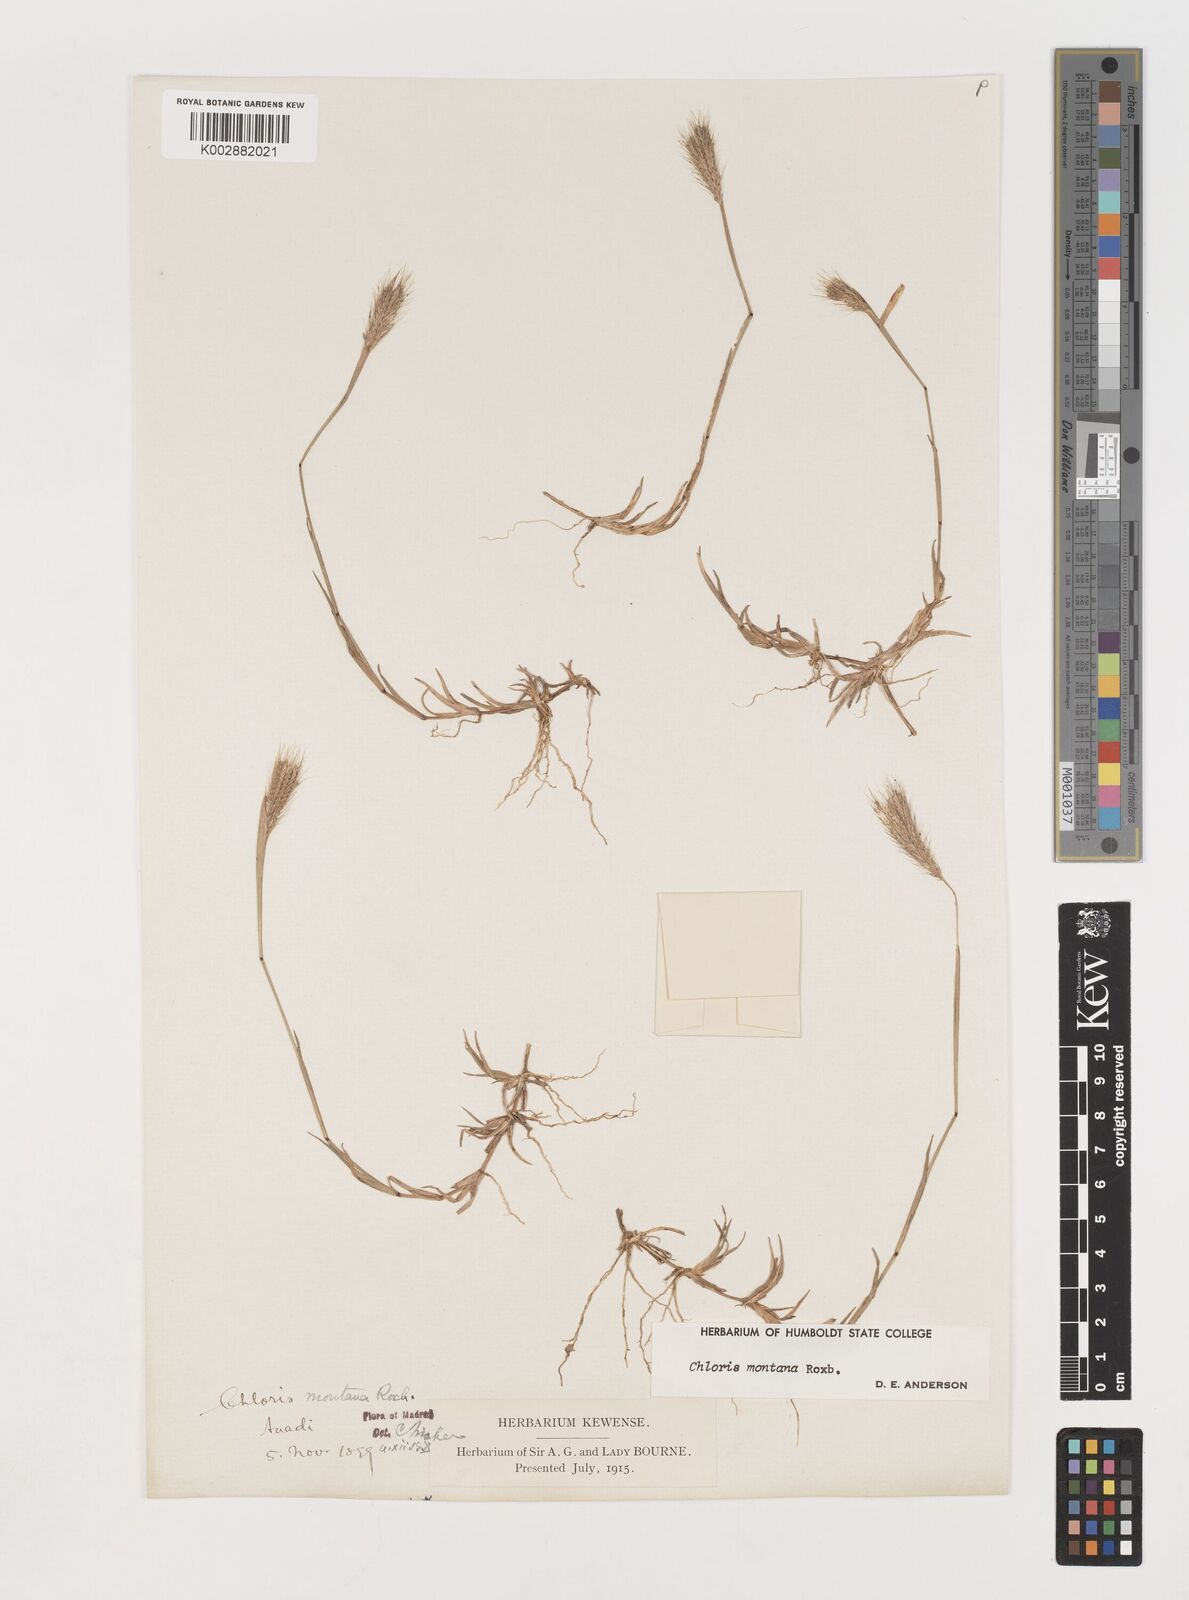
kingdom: Plantae
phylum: Tracheophyta
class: Liliopsida
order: Poales
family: Poaceae
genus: Chloris
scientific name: Chloris montana
